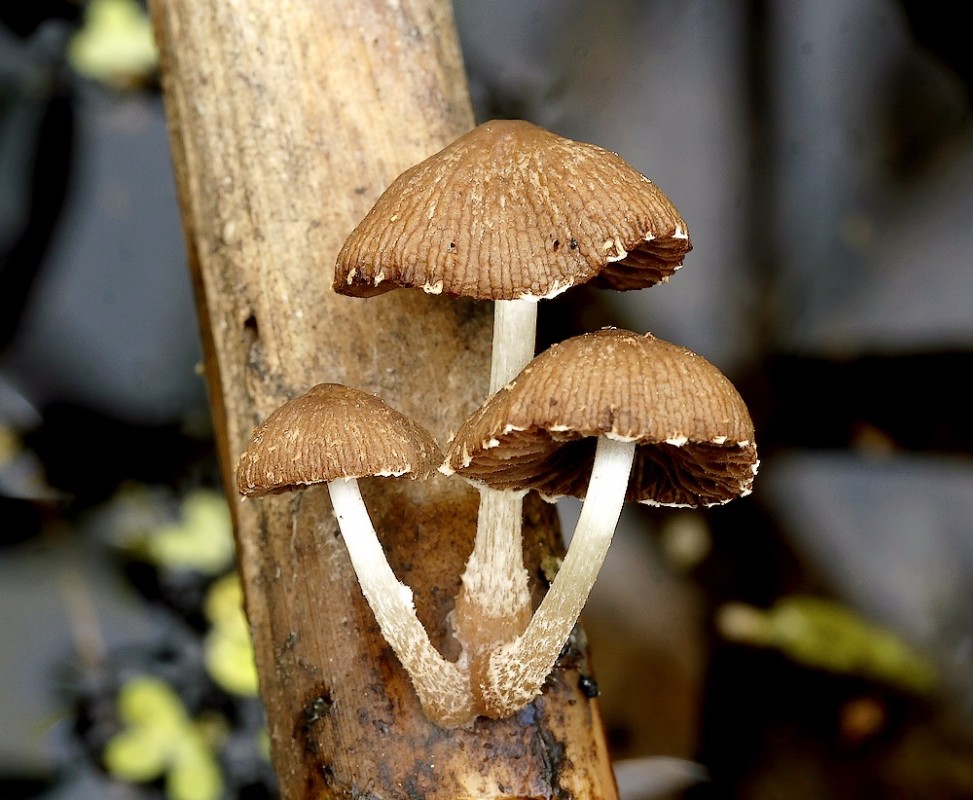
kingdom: Fungi
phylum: Basidiomycota
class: Agaricomycetes
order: Agaricales
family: Psathyrellaceae
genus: Candolleomyces
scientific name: Candolleomyces typhae
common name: dunhammer-mørkhat
